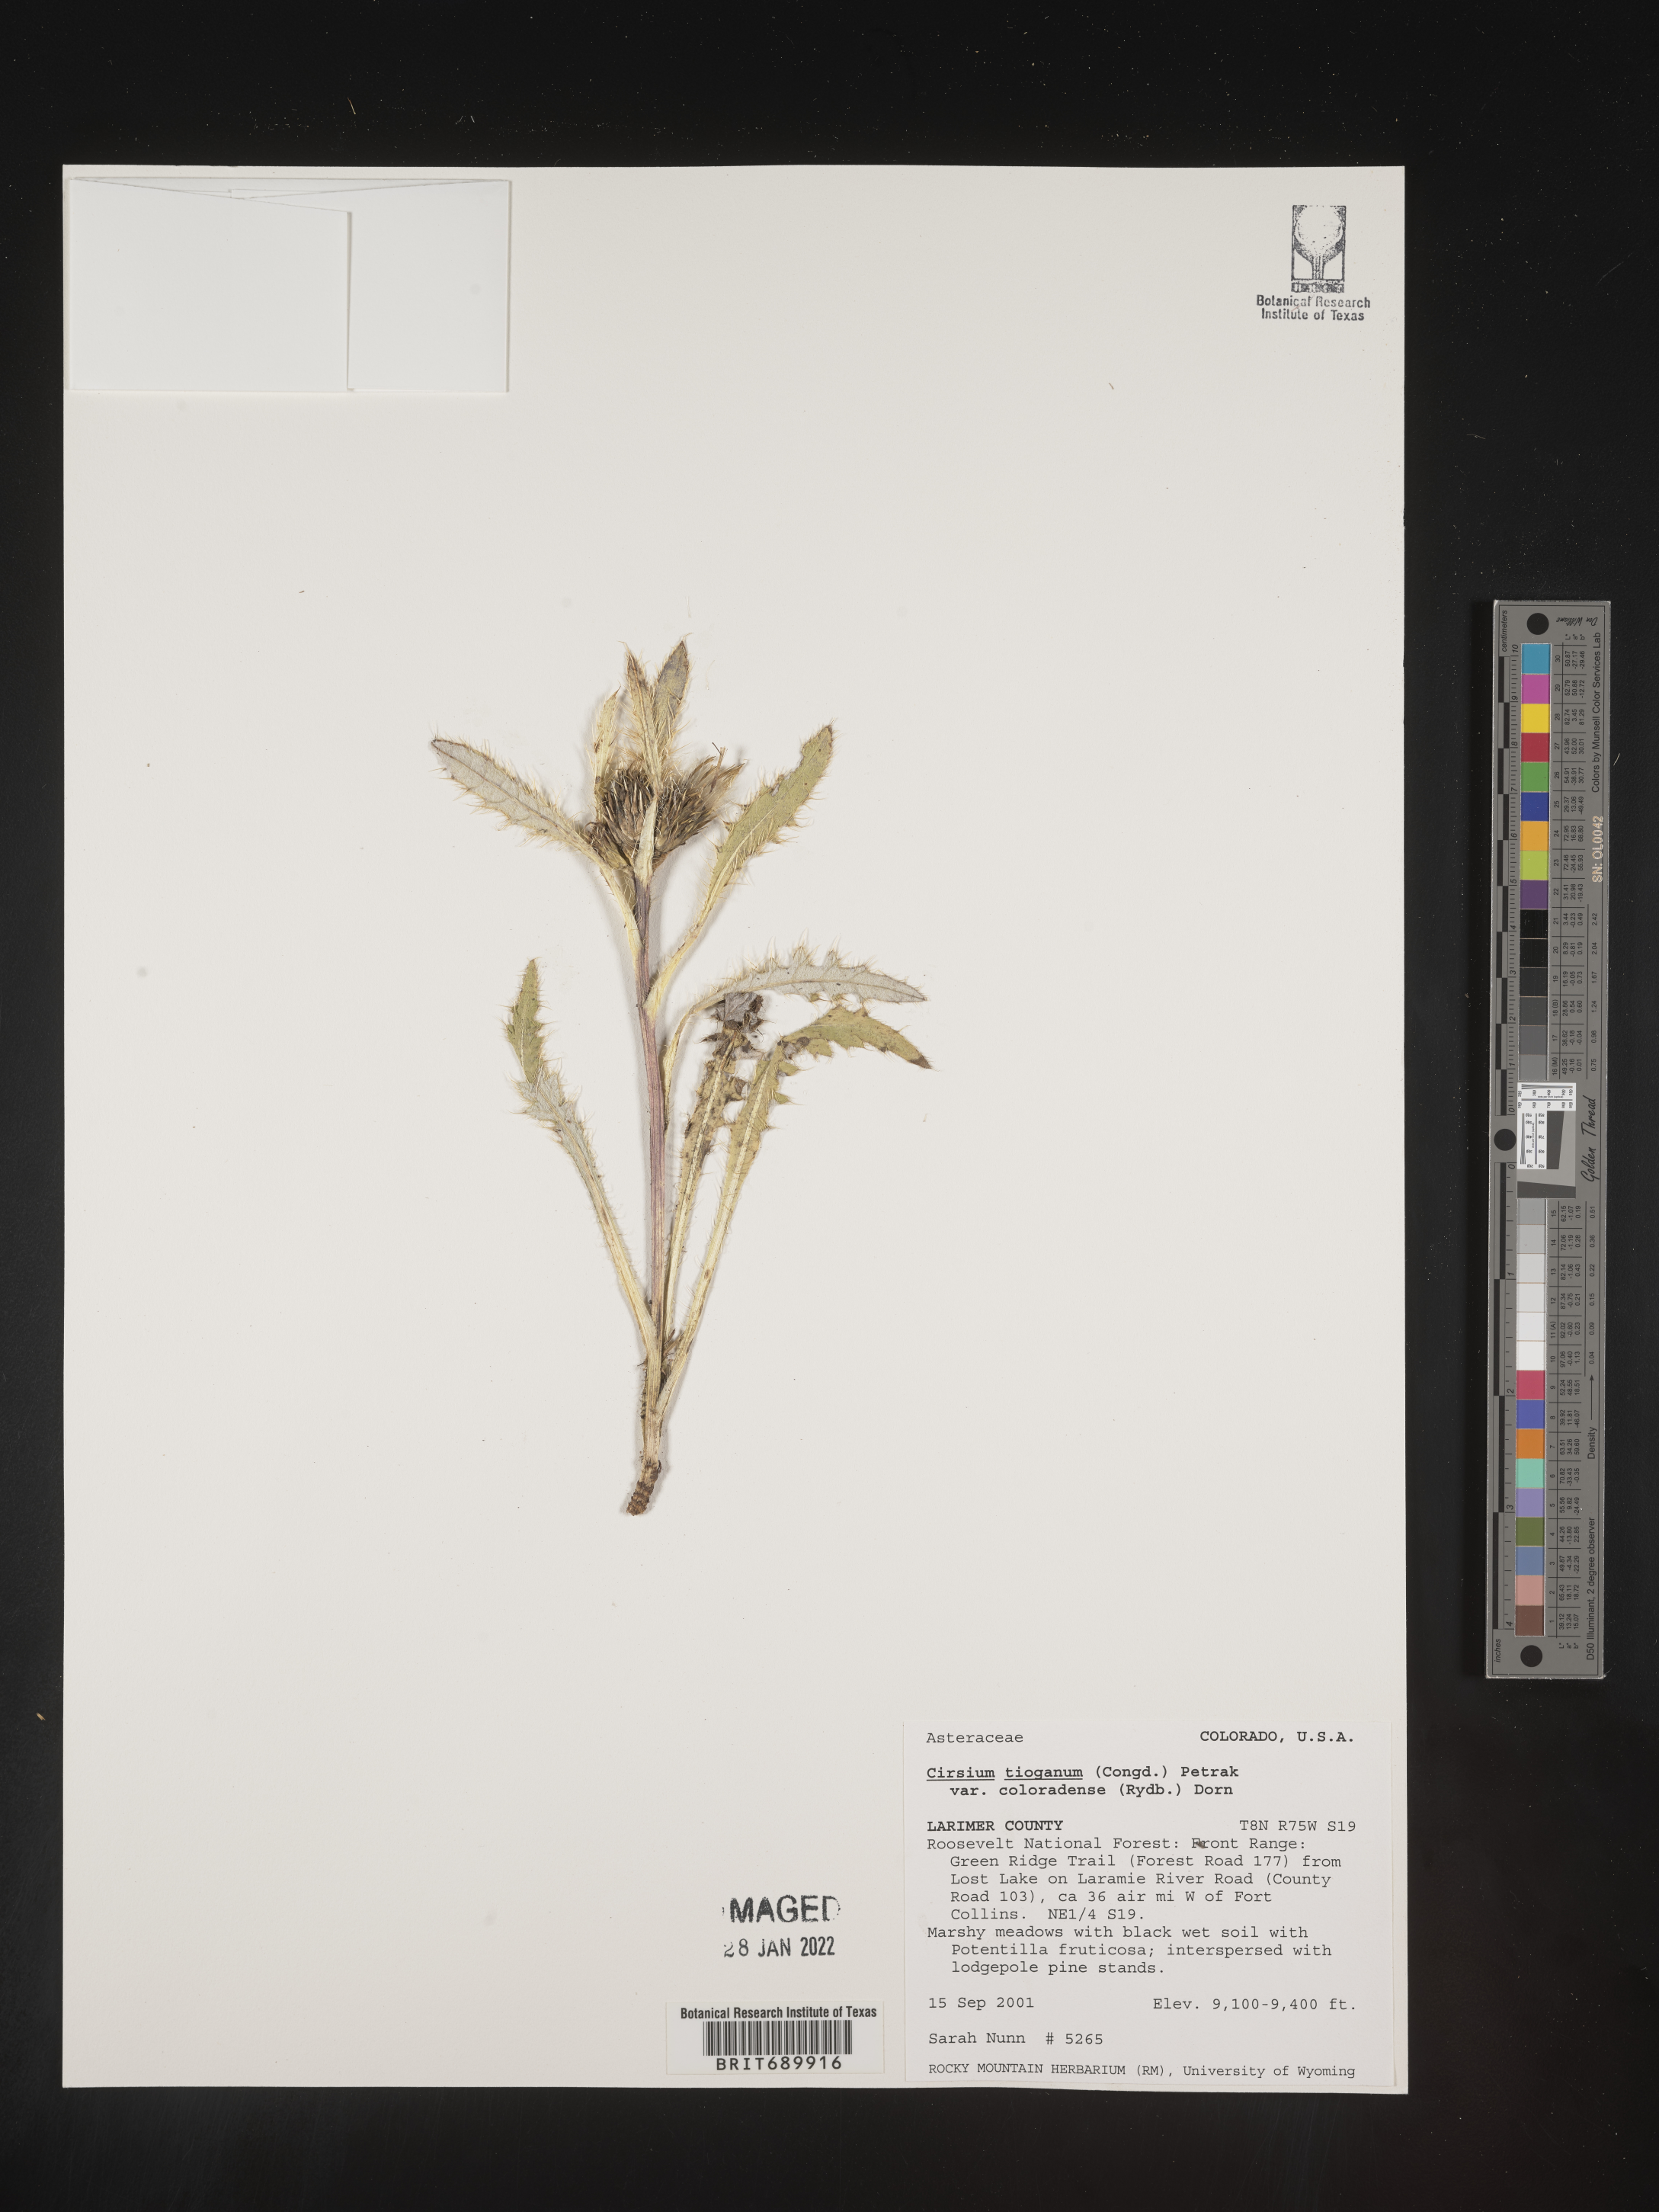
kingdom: Plantae
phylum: Tracheophyta
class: Magnoliopsida
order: Asterales
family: Asteraceae
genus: Cirsium
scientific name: Cirsium
